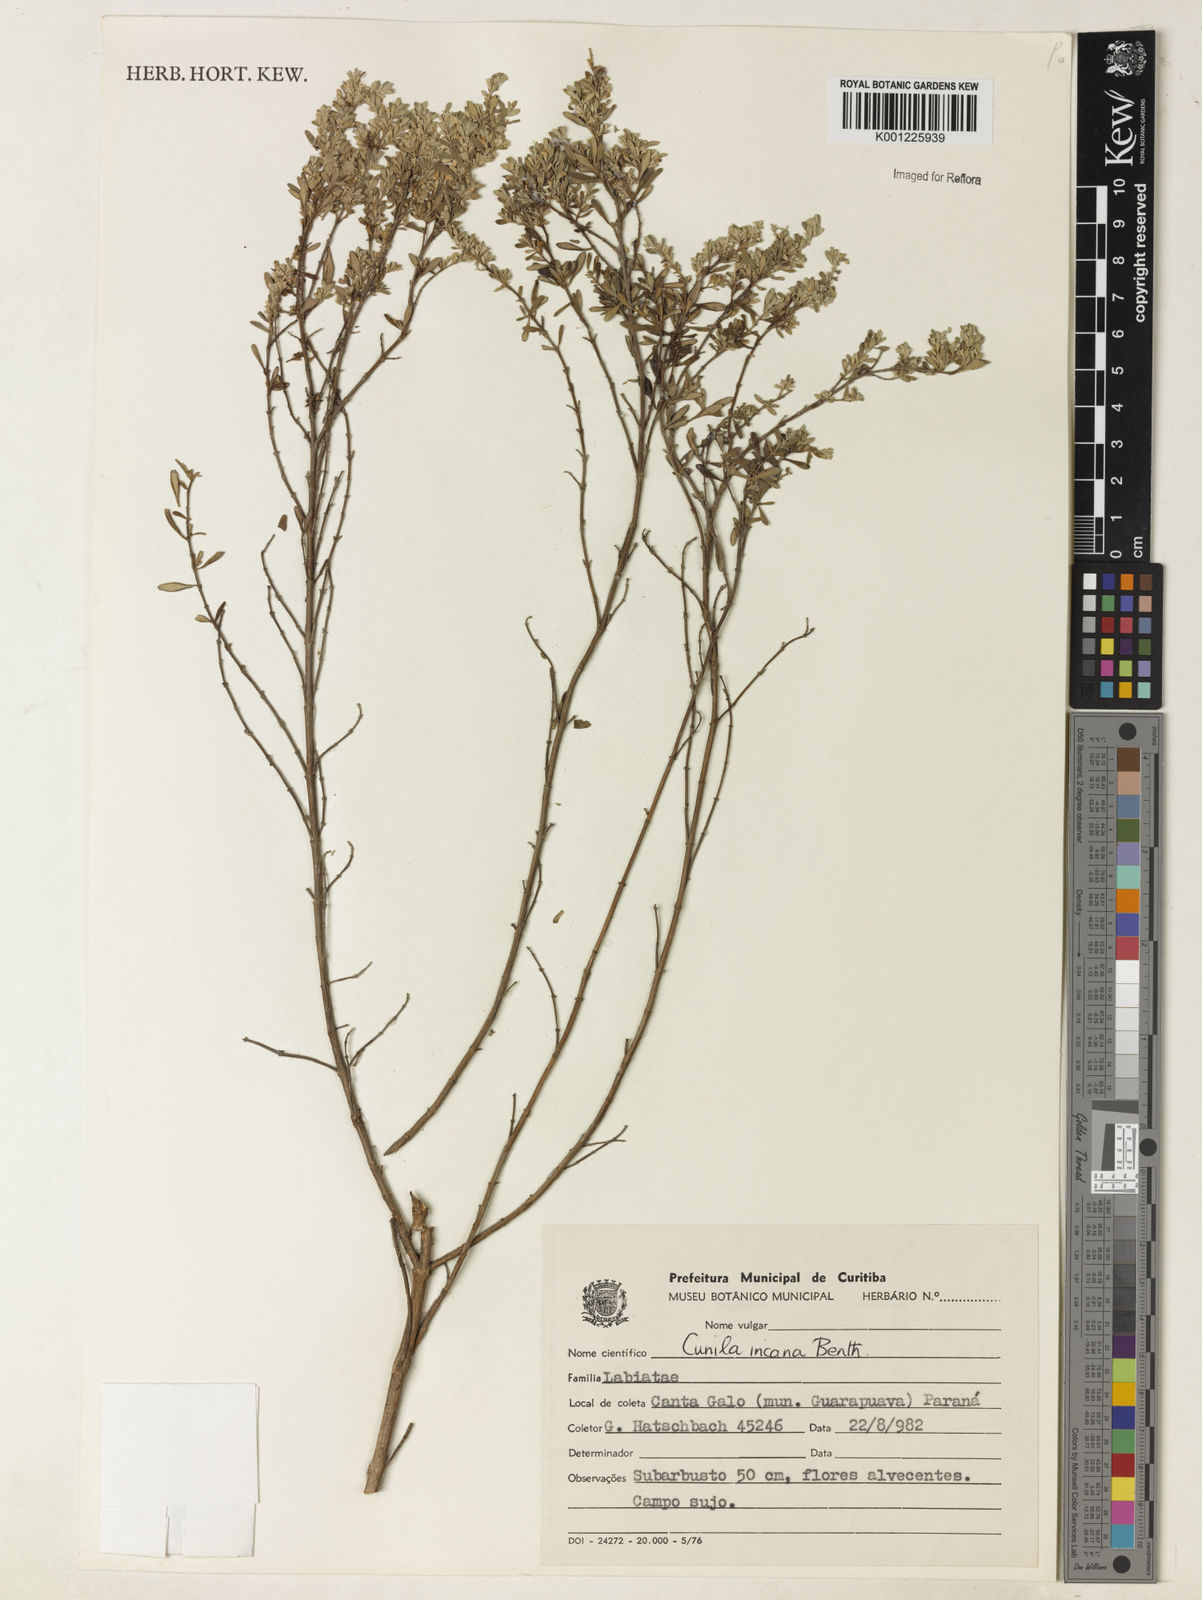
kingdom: Plantae
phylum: Tracheophyta
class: Magnoliopsida
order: Lamiales
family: Lamiaceae
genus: Cunila
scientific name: Cunila incana
